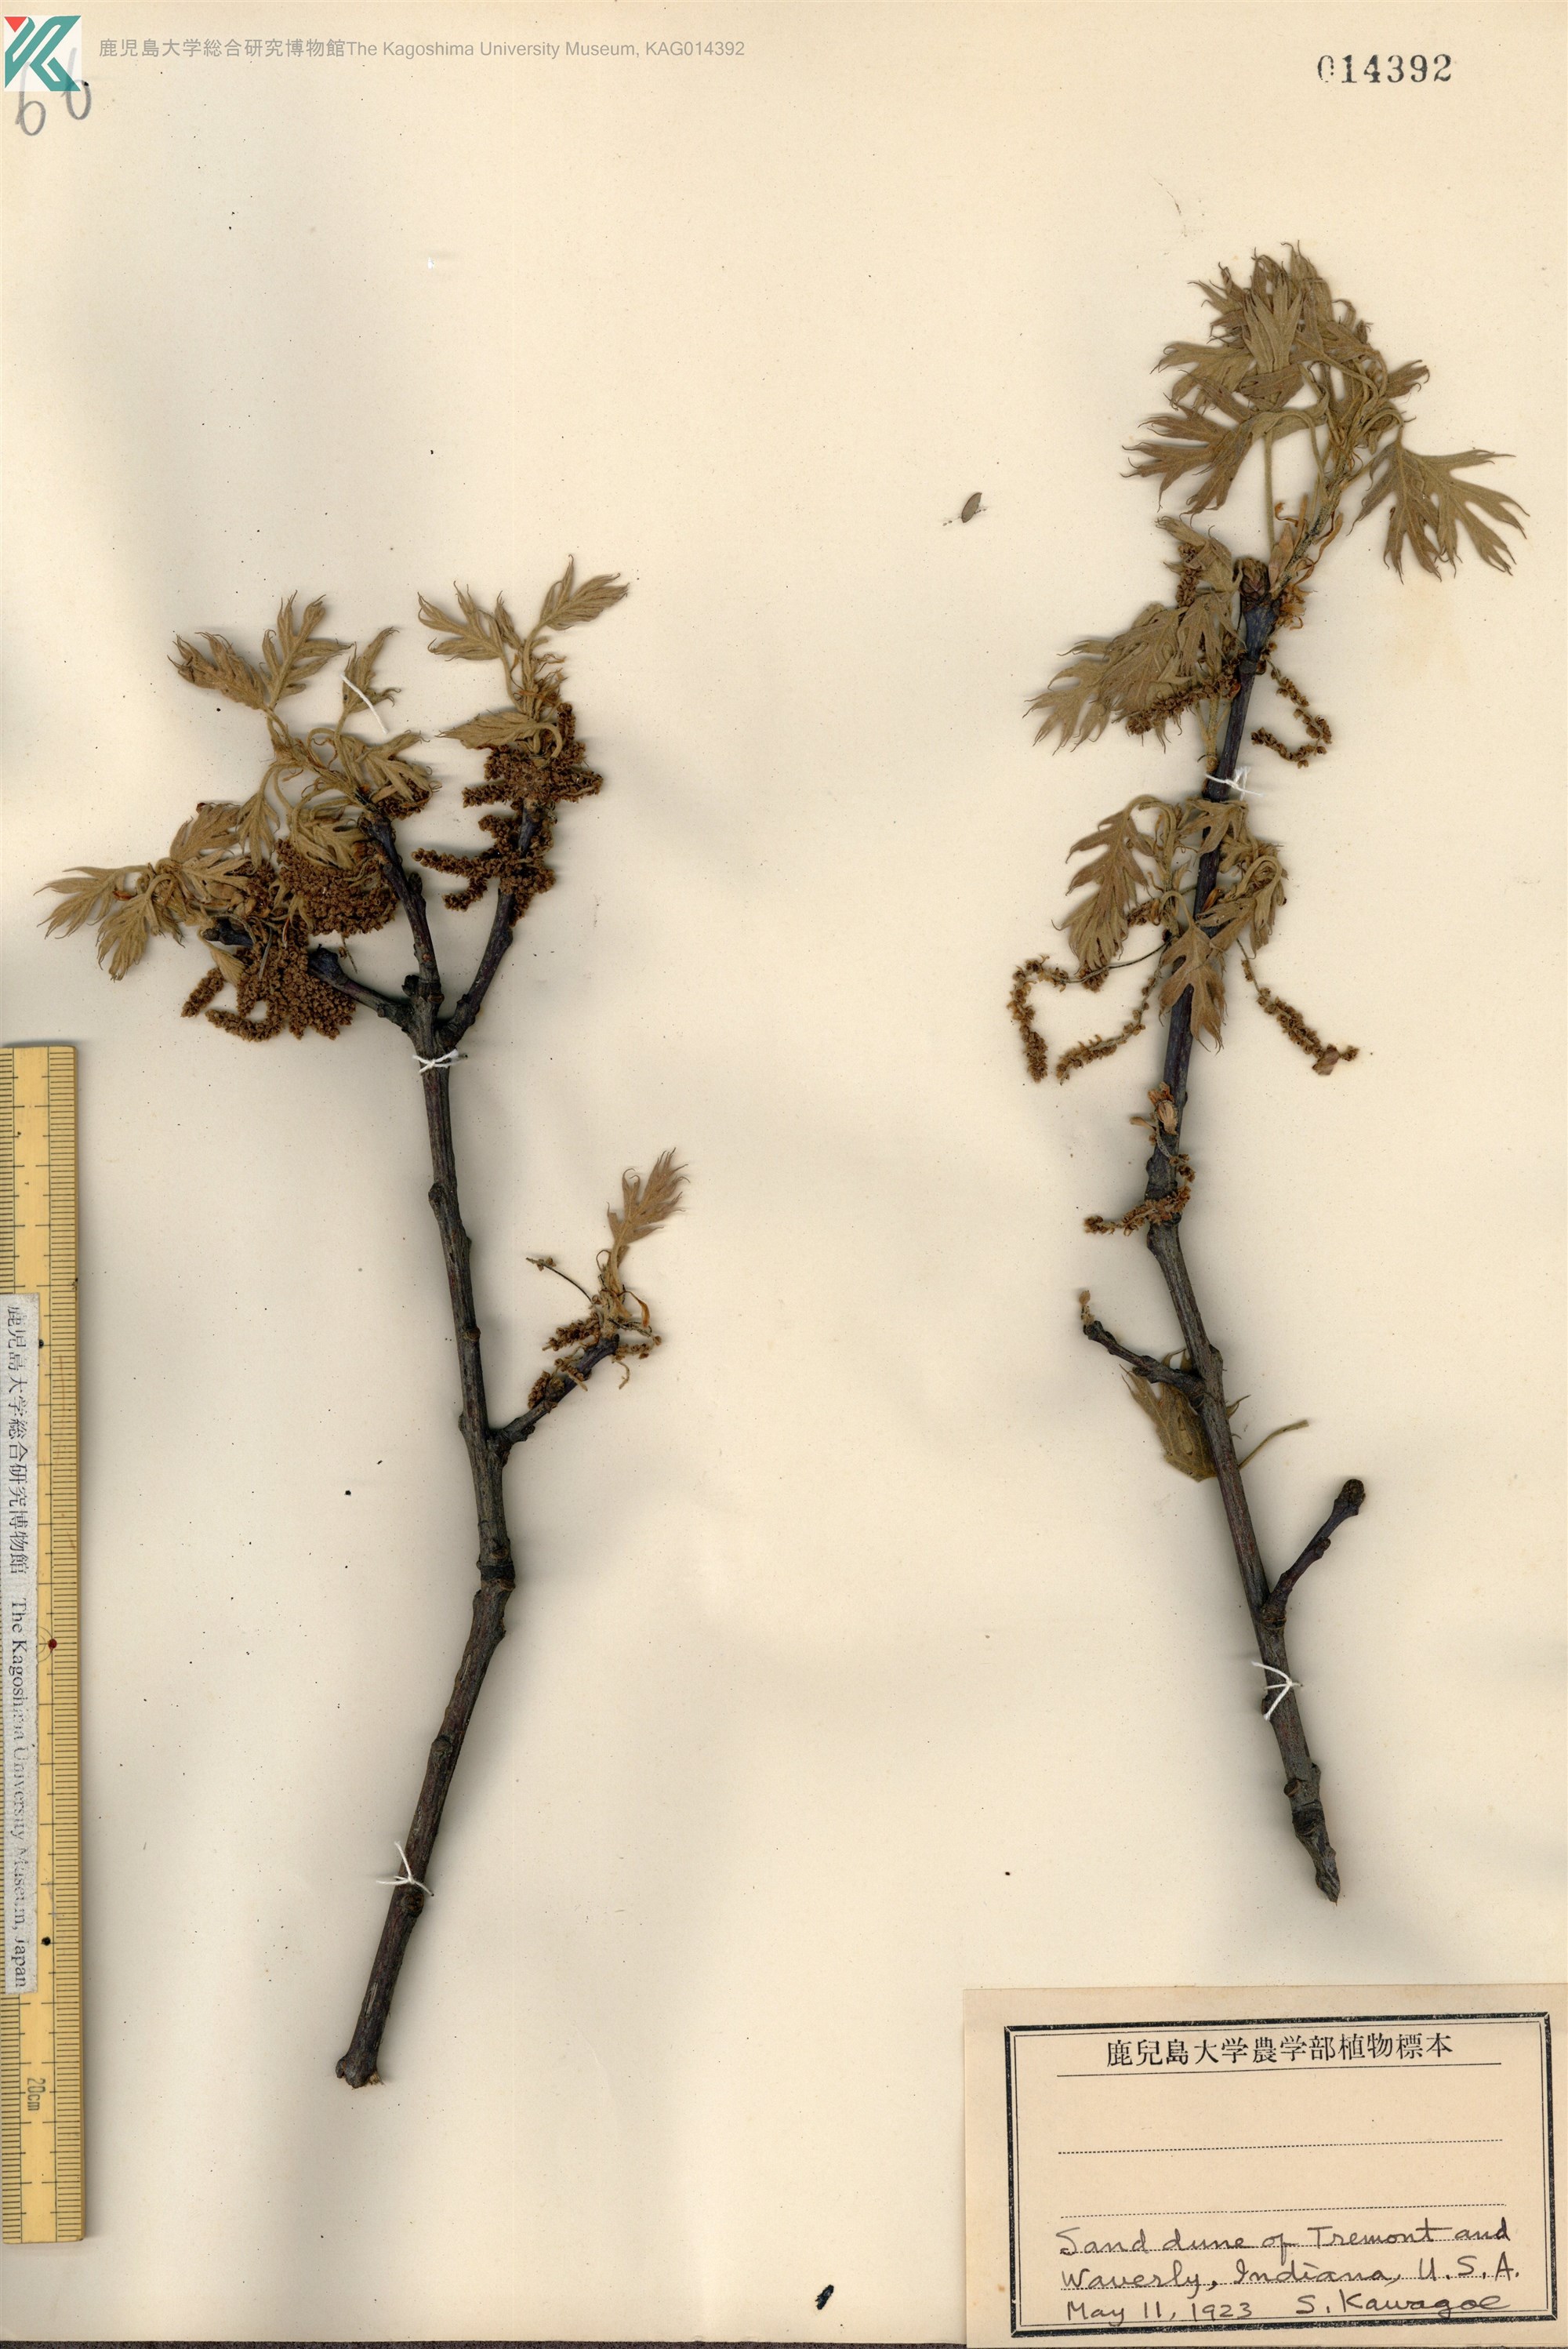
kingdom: Plantae
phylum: Tracheophyta
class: Magnoliopsida
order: Fagales
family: Fagaceae
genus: Quercus
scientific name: Quercus
